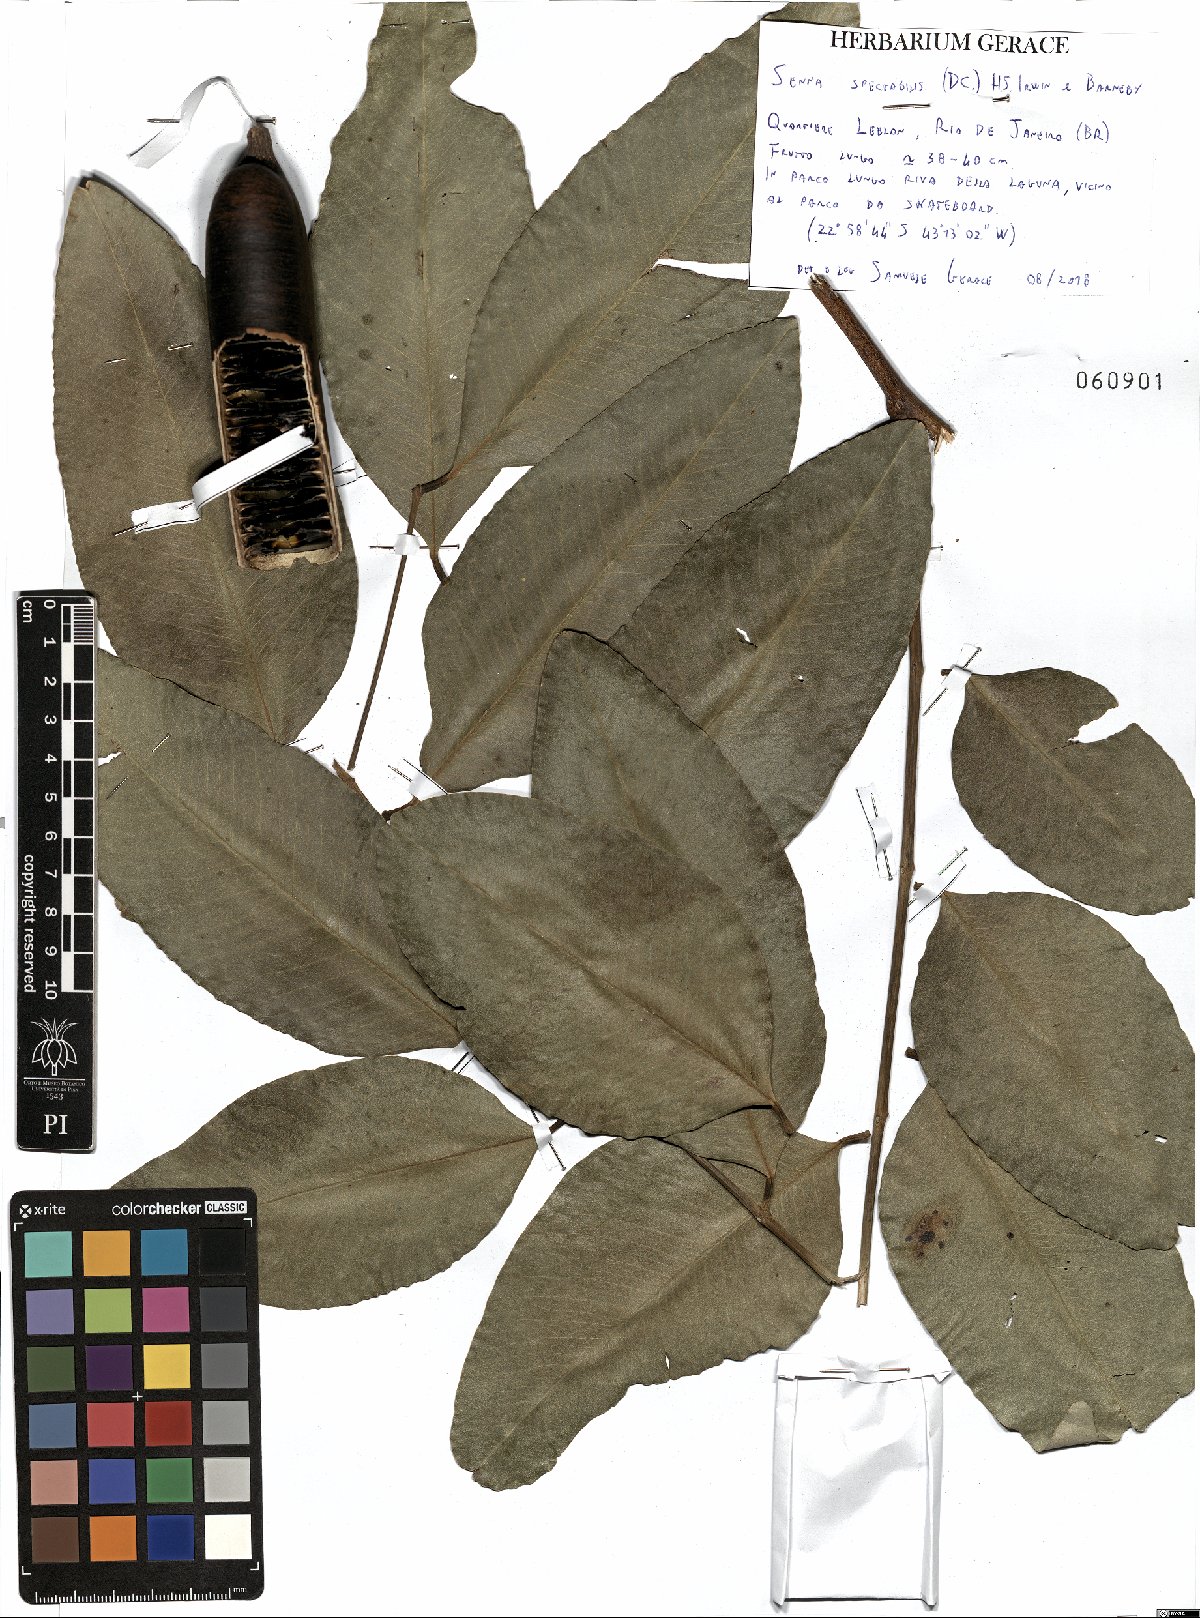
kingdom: Plantae
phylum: Tracheophyta
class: Magnoliopsida
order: Fabales
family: Fabaceae
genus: Senna
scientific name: Senna spectabilis
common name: Casia amarilla
